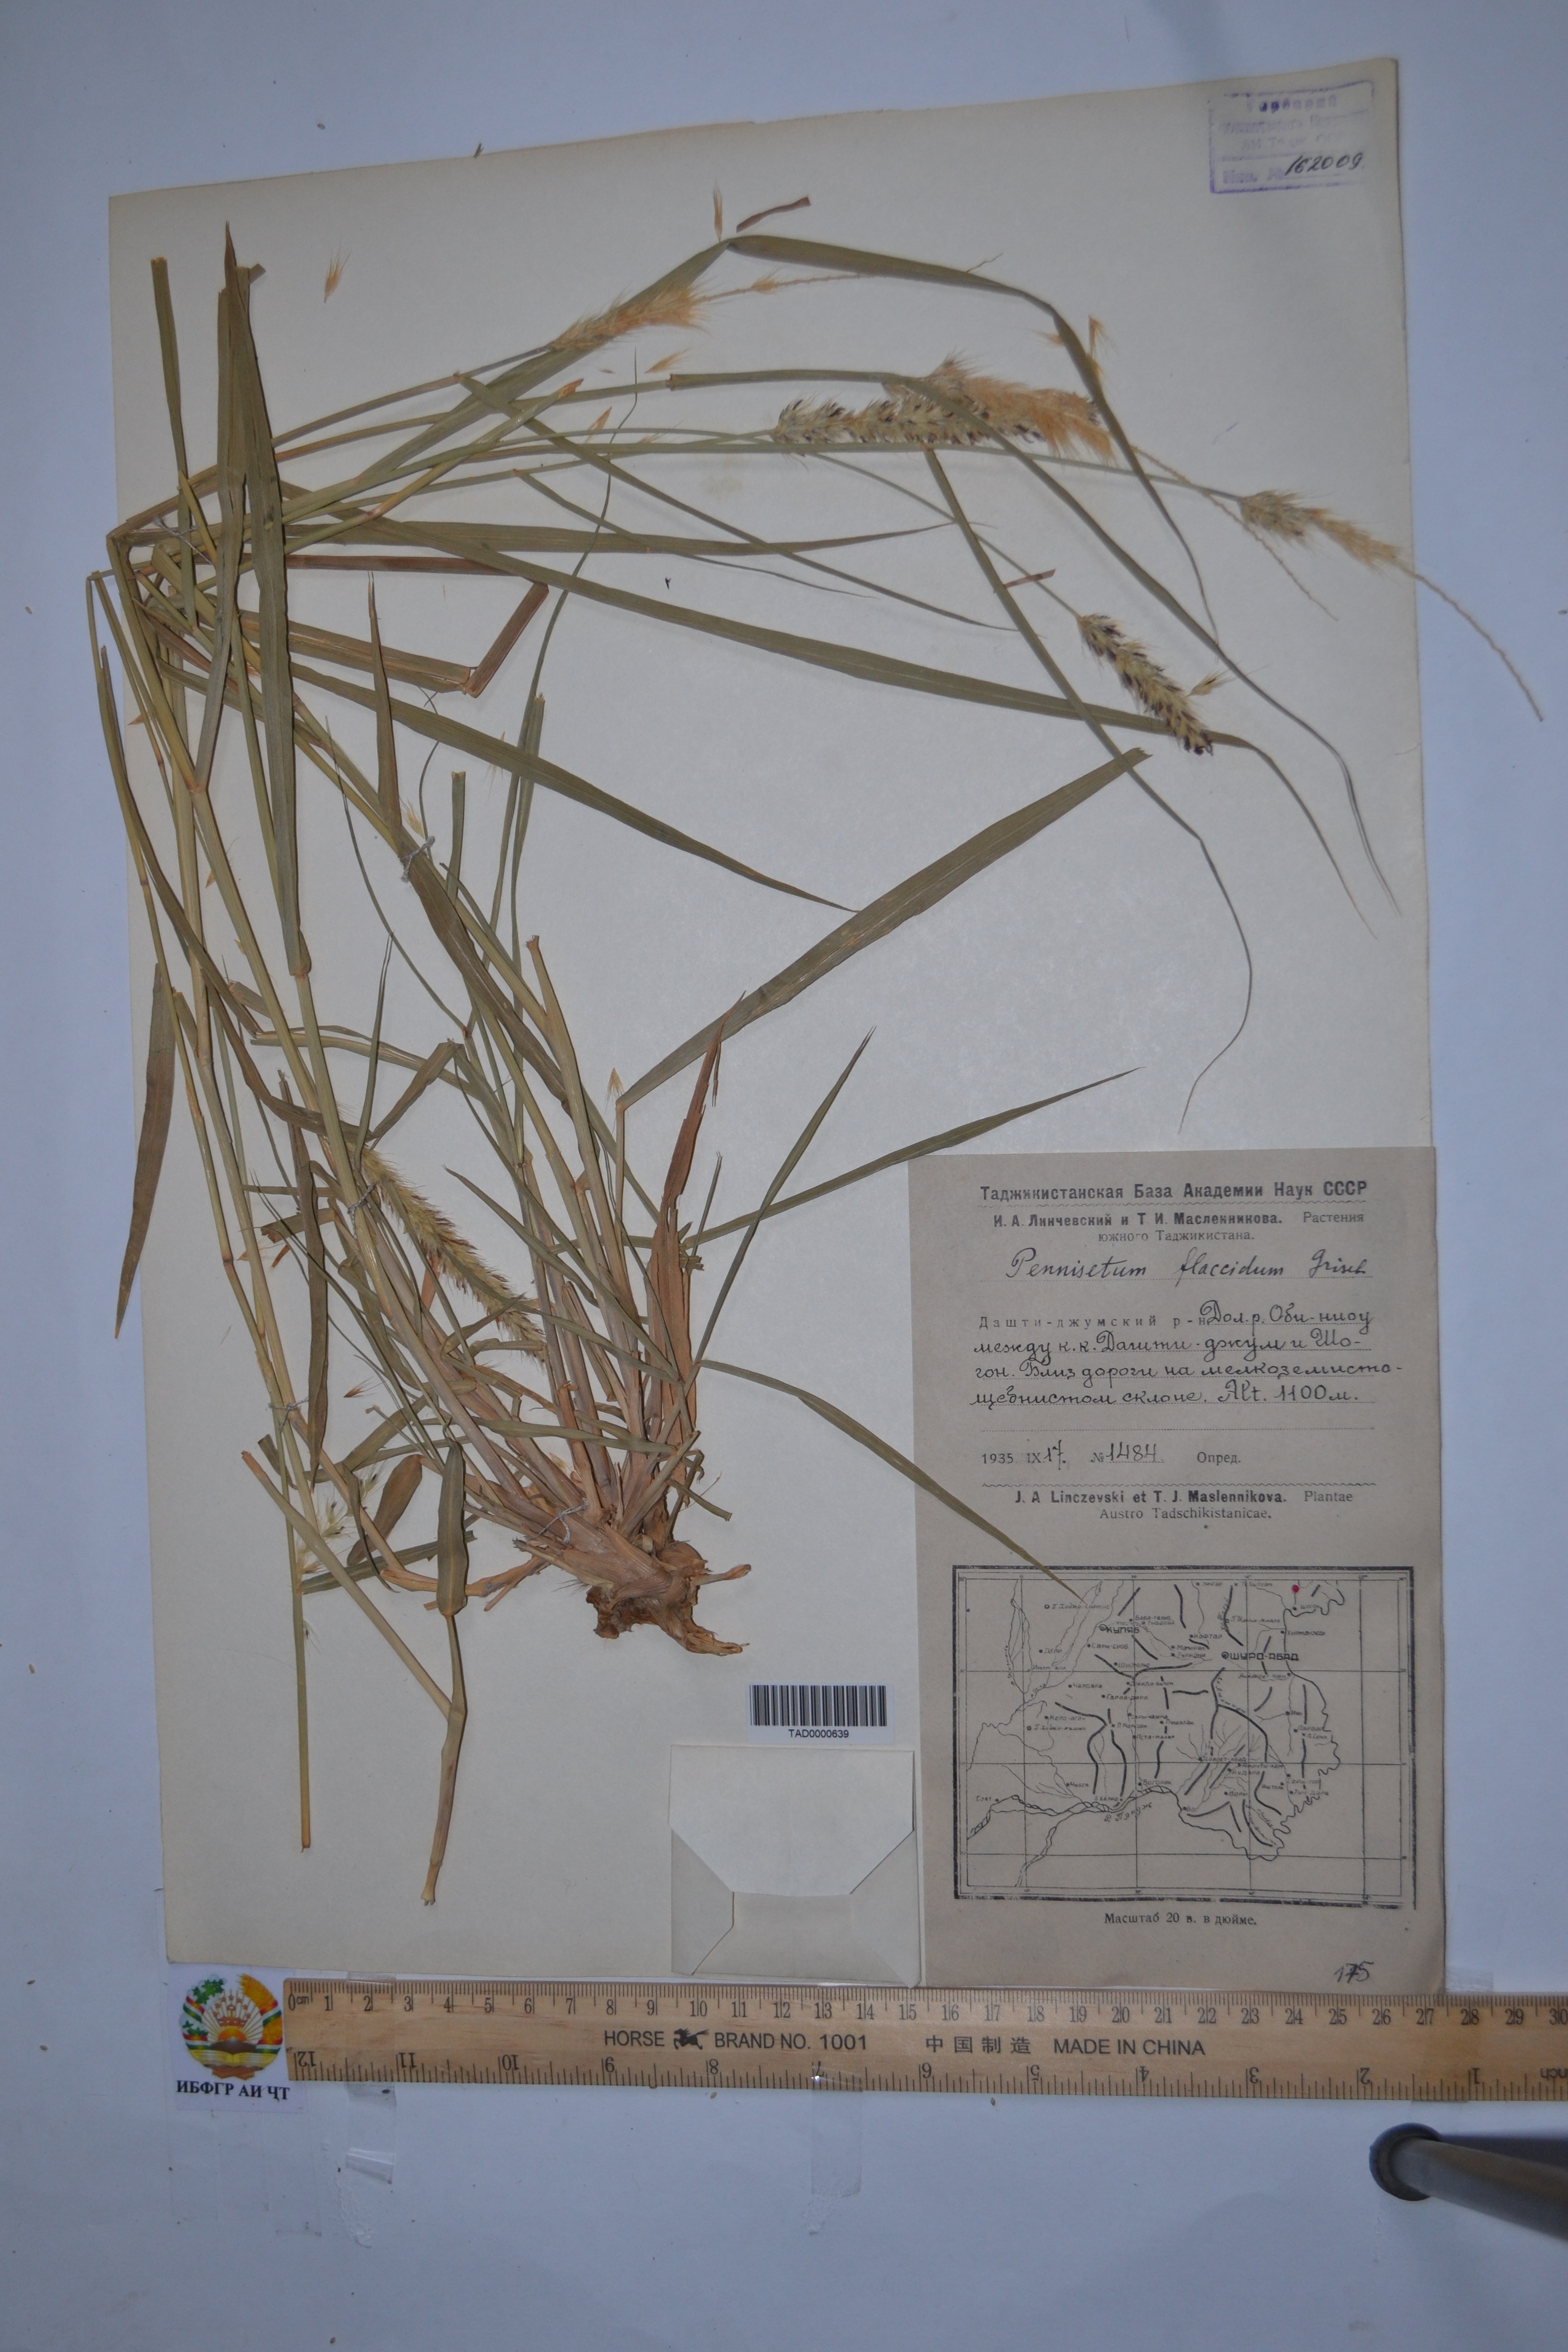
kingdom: Plantae
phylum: Tracheophyta
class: Liliopsida
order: Poales
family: Poaceae
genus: Cenchrus
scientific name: Cenchrus flaccidus
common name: Flaccid grass
